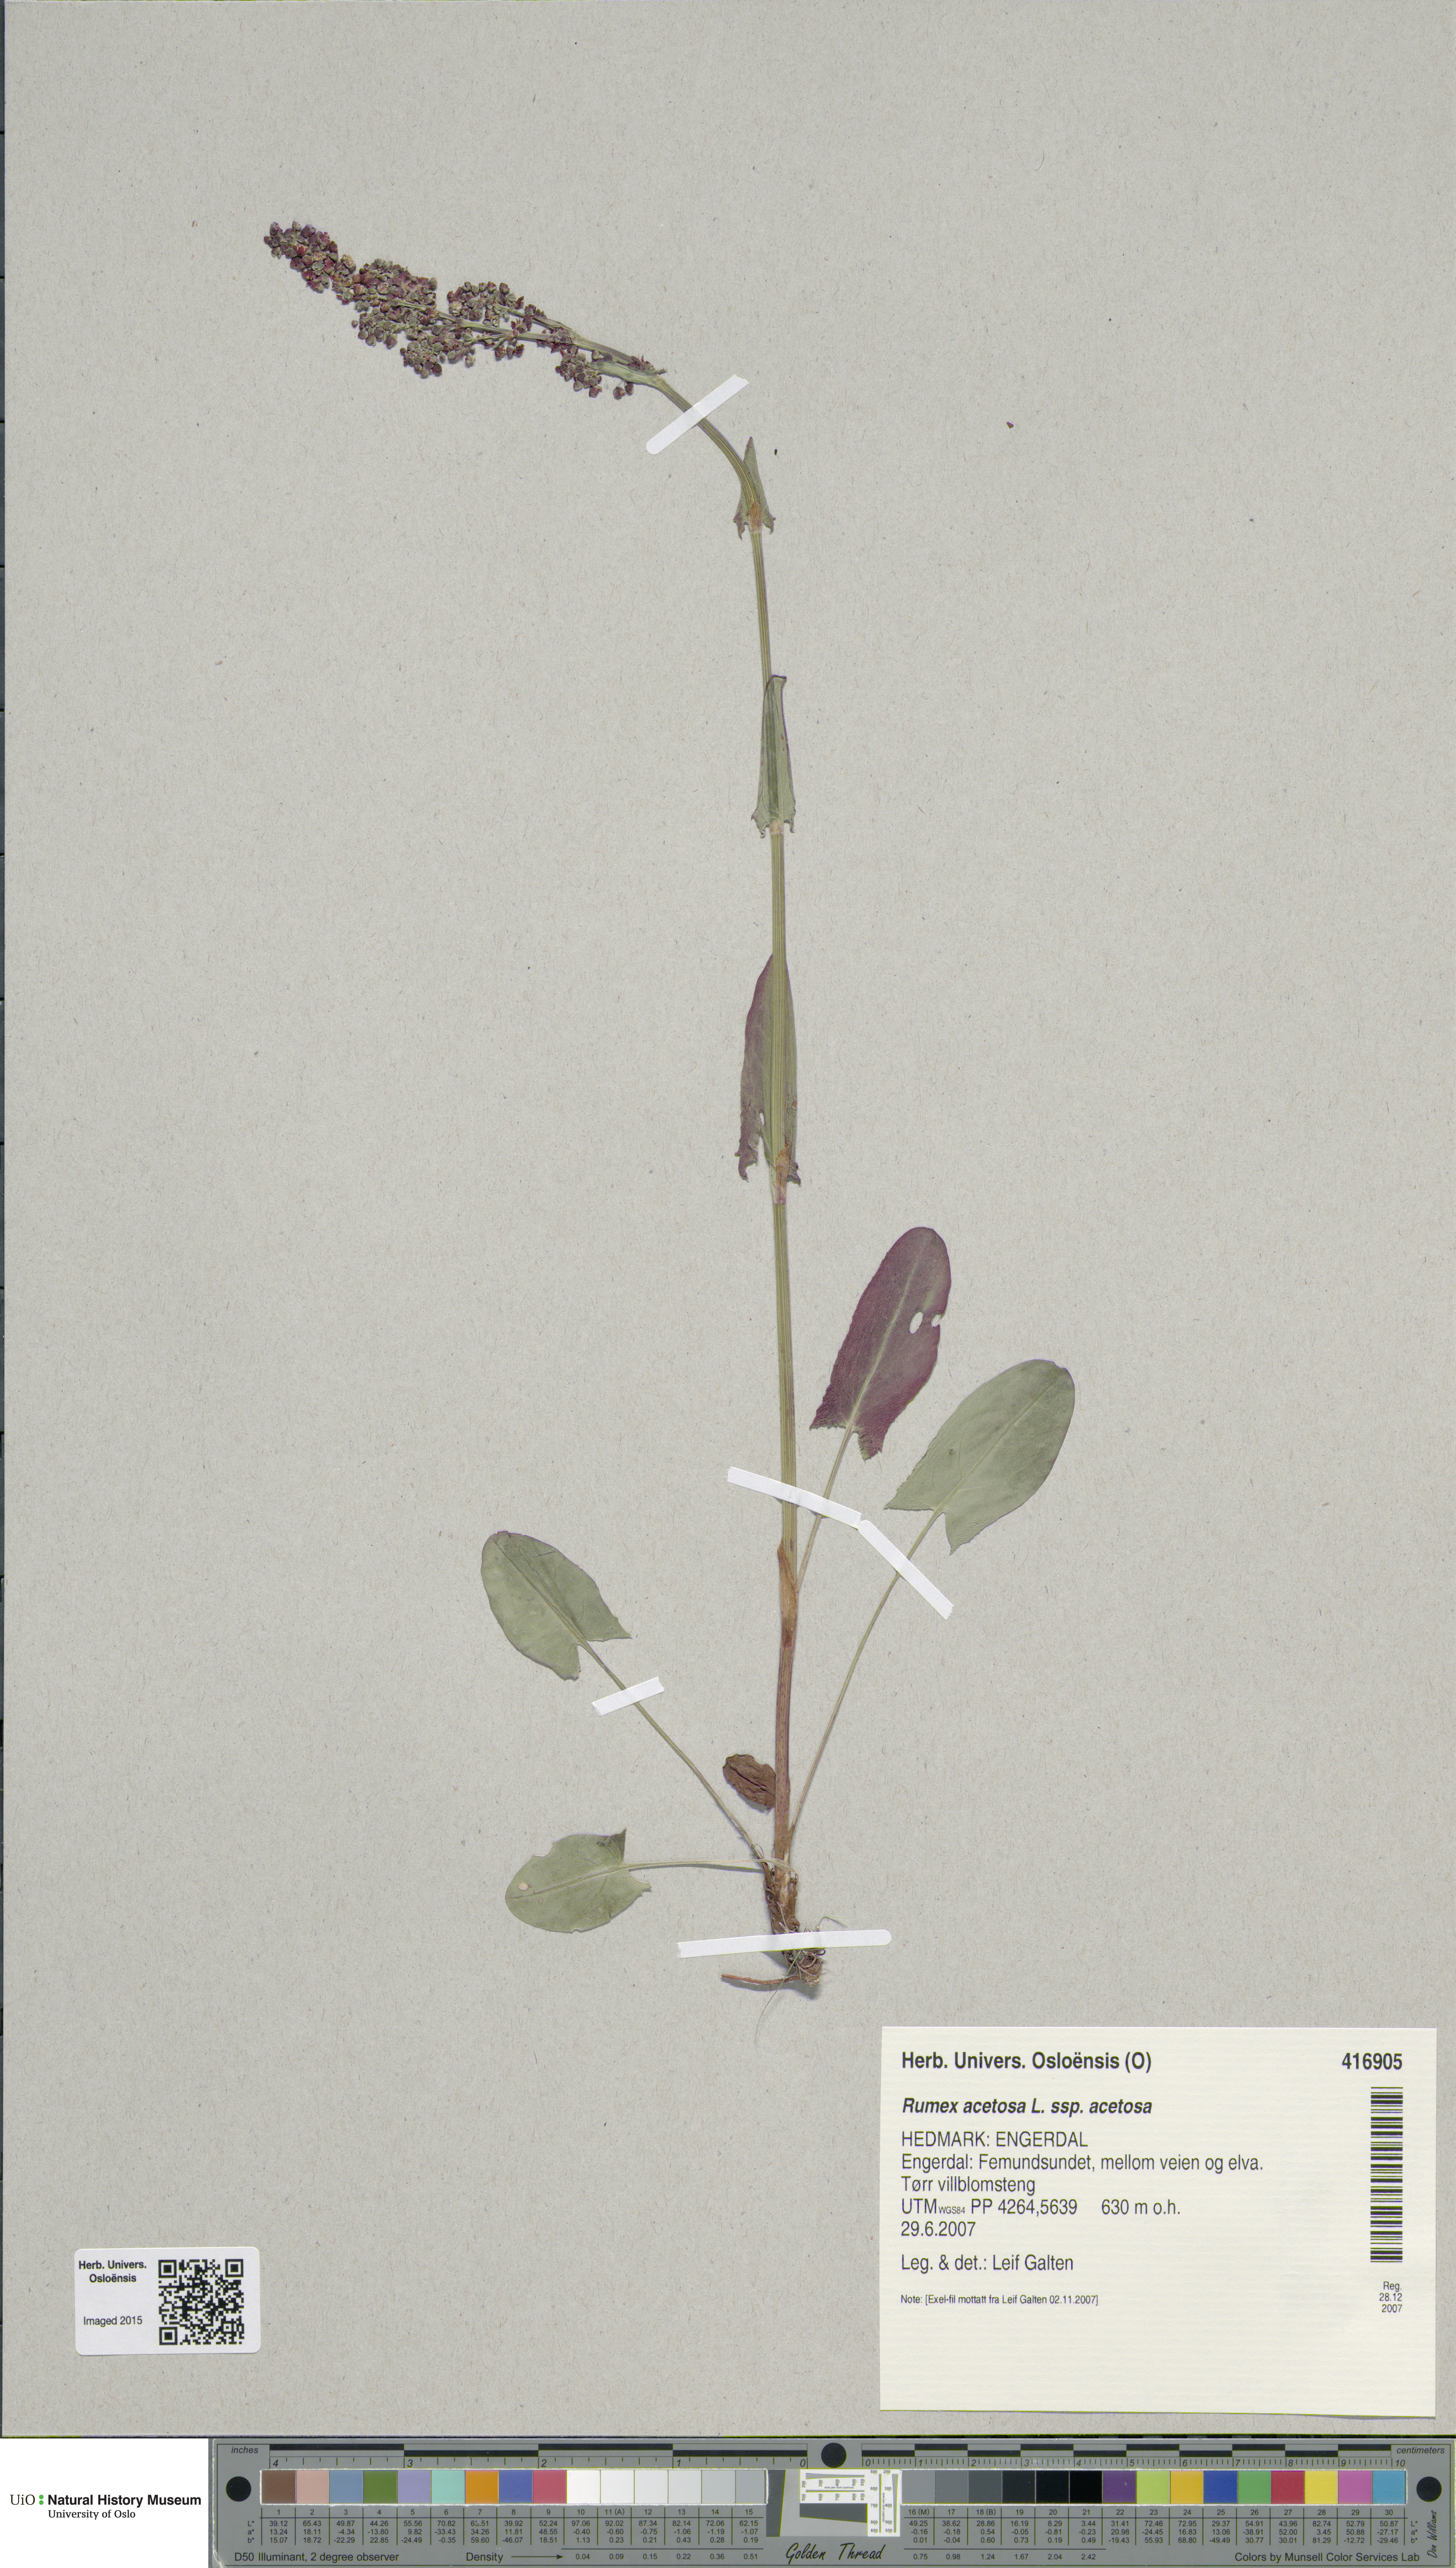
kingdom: Plantae
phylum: Tracheophyta
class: Magnoliopsida
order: Caryophyllales
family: Polygonaceae
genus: Rumex
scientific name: Rumex acetosa
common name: Garden sorrel
